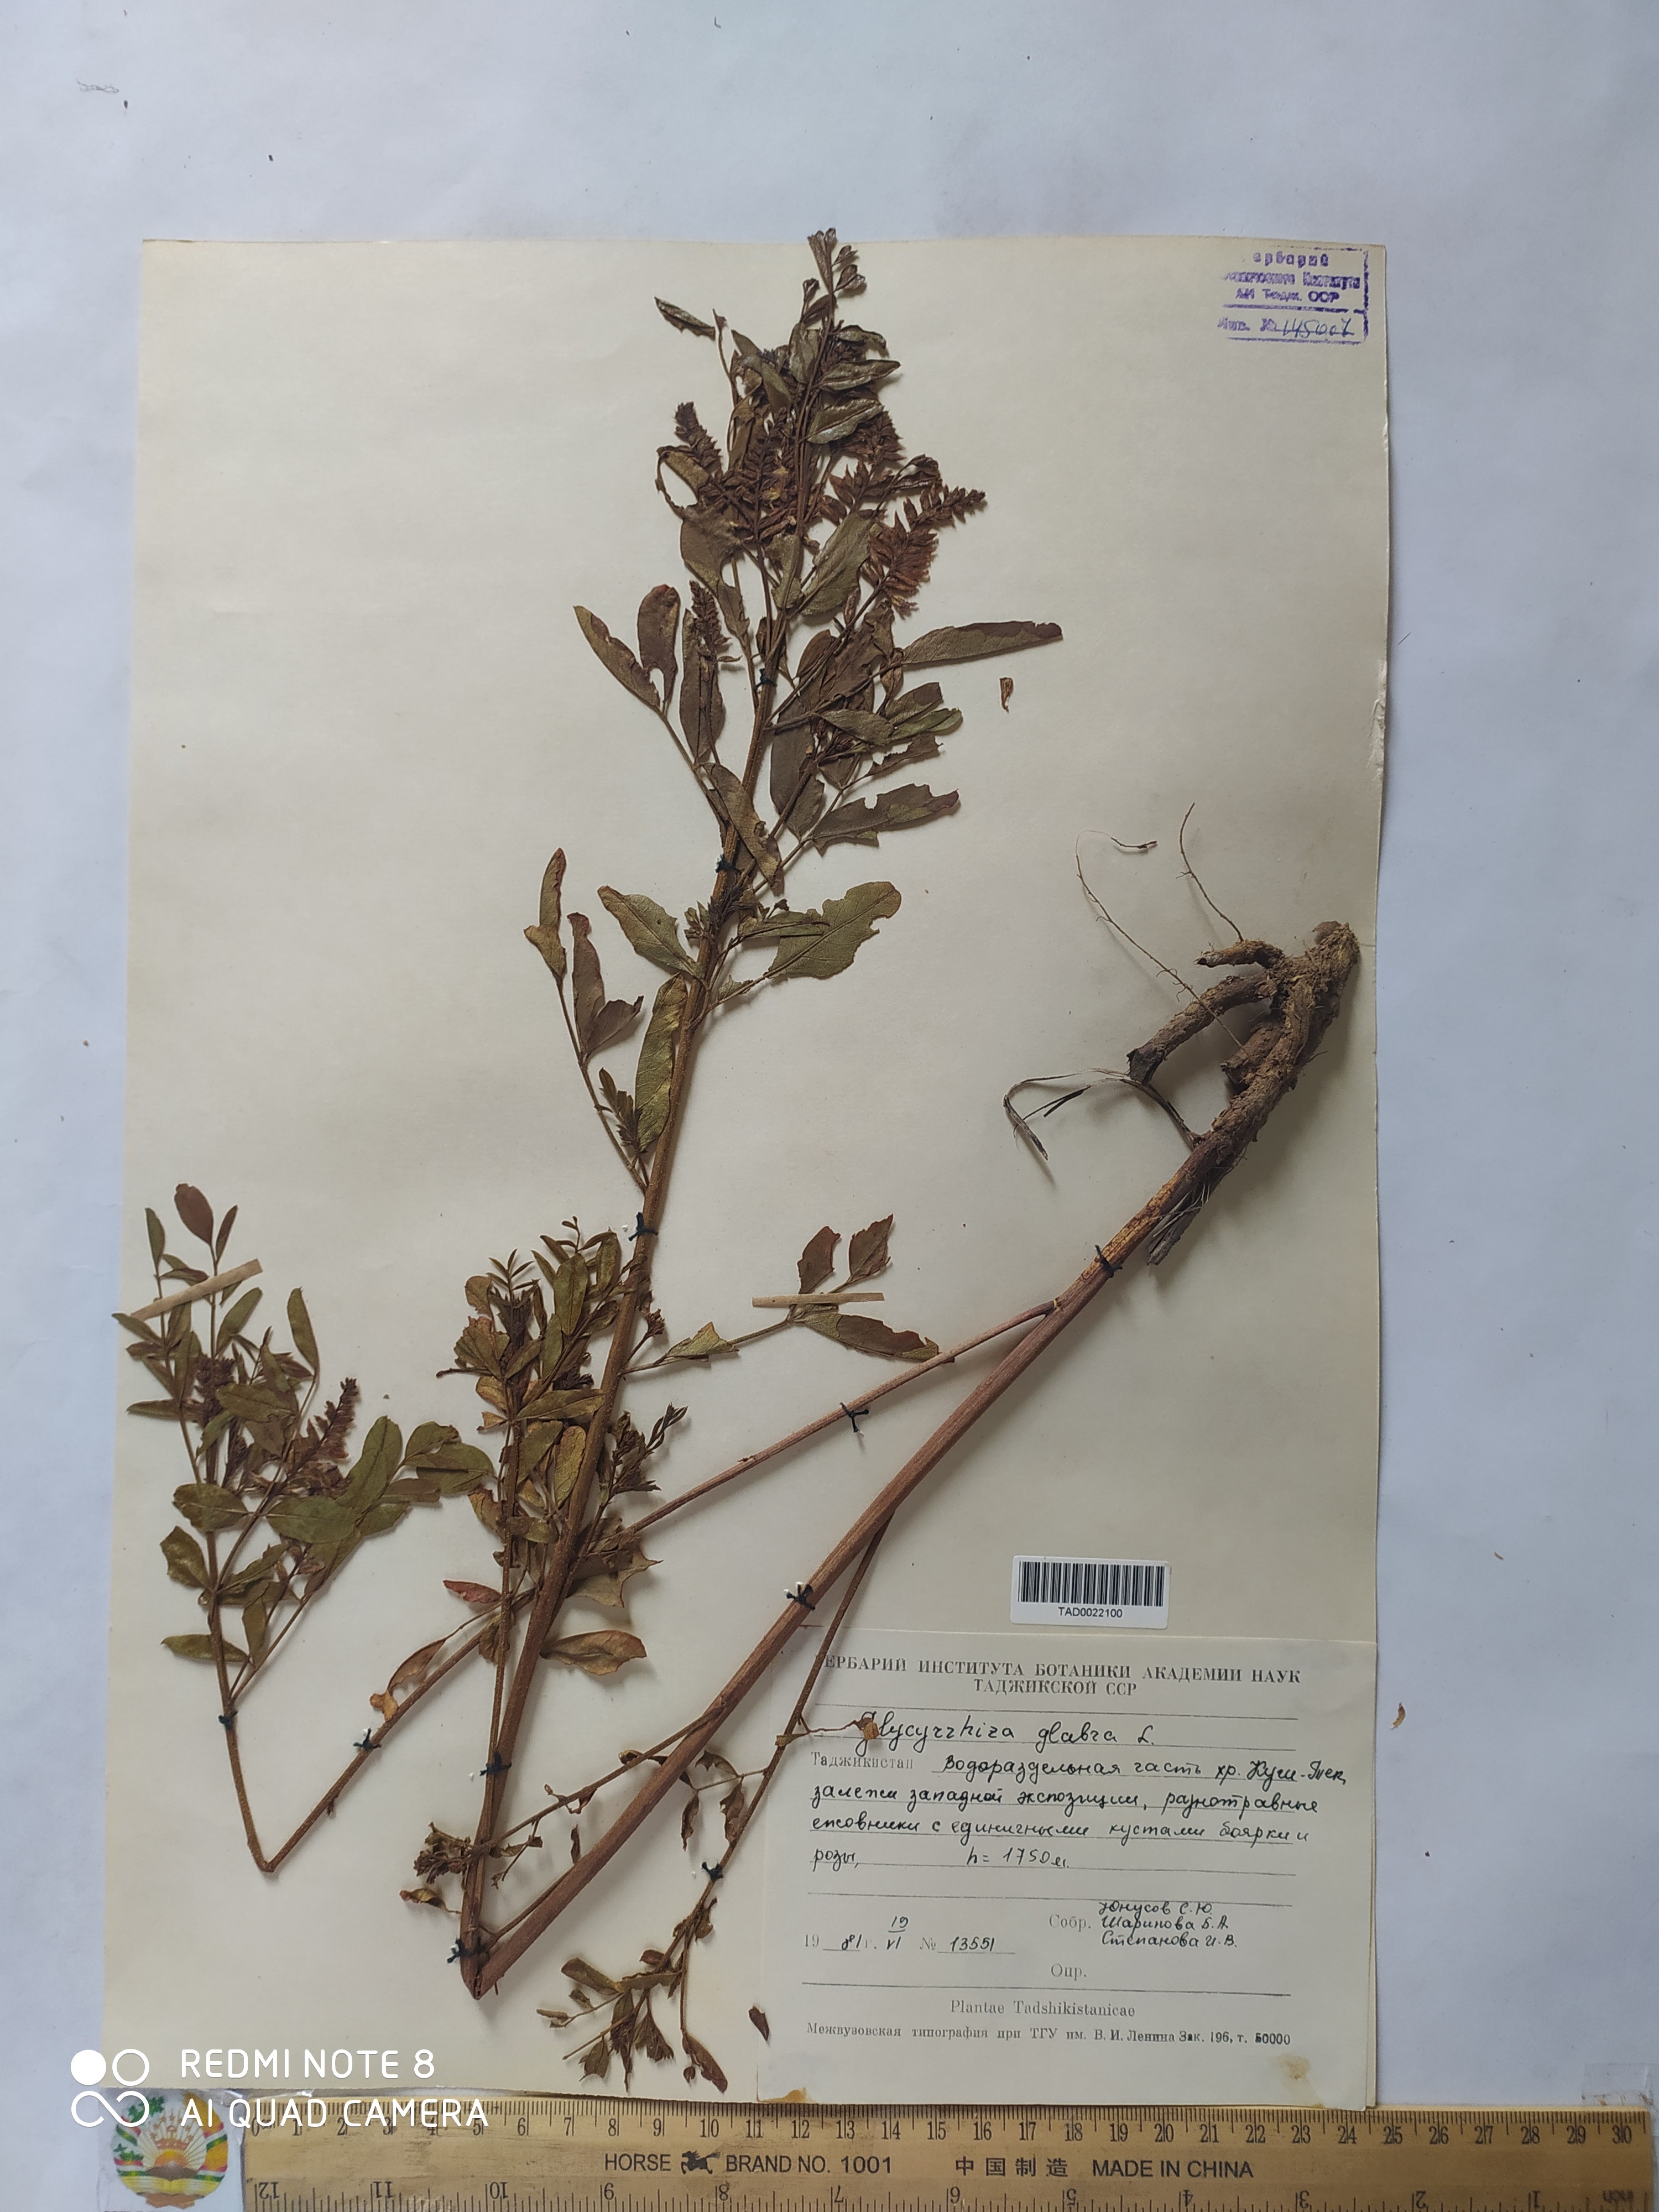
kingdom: Plantae
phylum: Tracheophyta
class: Magnoliopsida
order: Fabales
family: Fabaceae
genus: Glycyrrhiza
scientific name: Glycyrrhiza glabra
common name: Liquorice
